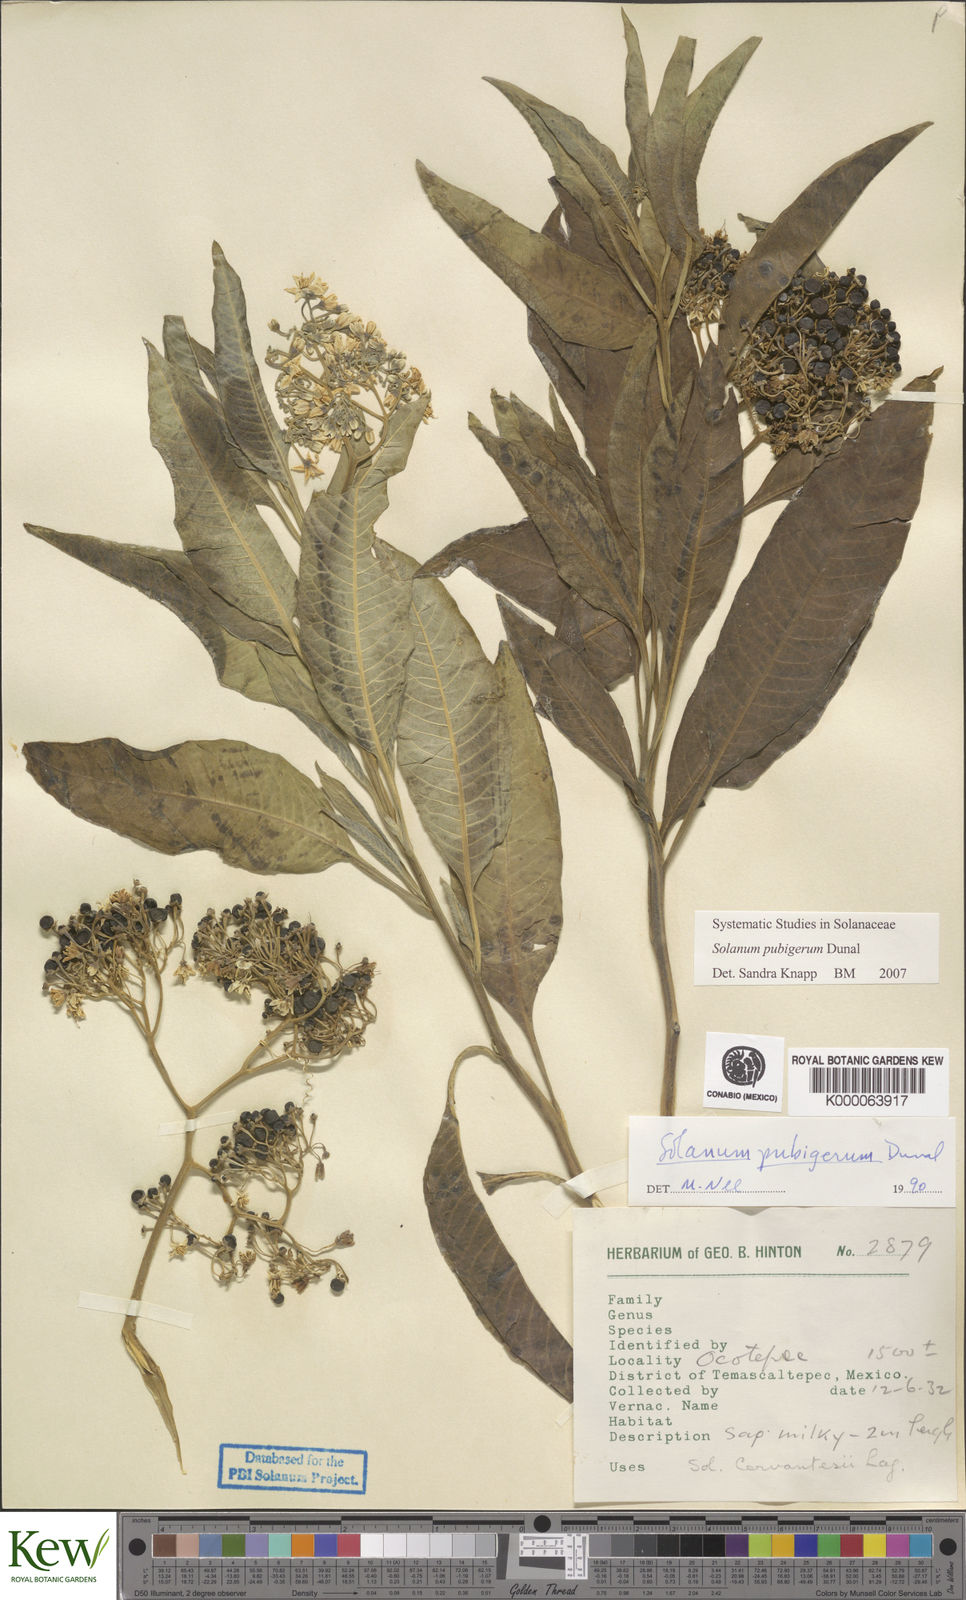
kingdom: Plantae
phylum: Tracheophyta
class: Magnoliopsida
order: Solanales
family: Solanaceae
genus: Solanum
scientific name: Solanum pubigerum
